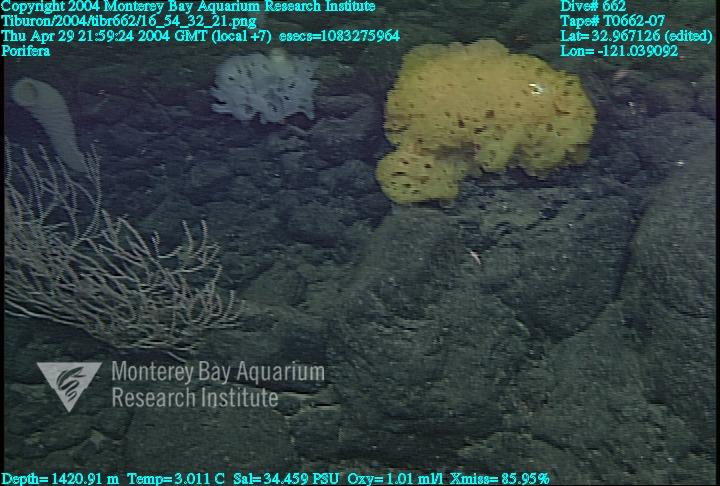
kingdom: Animalia
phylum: Porifera
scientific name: Porifera
